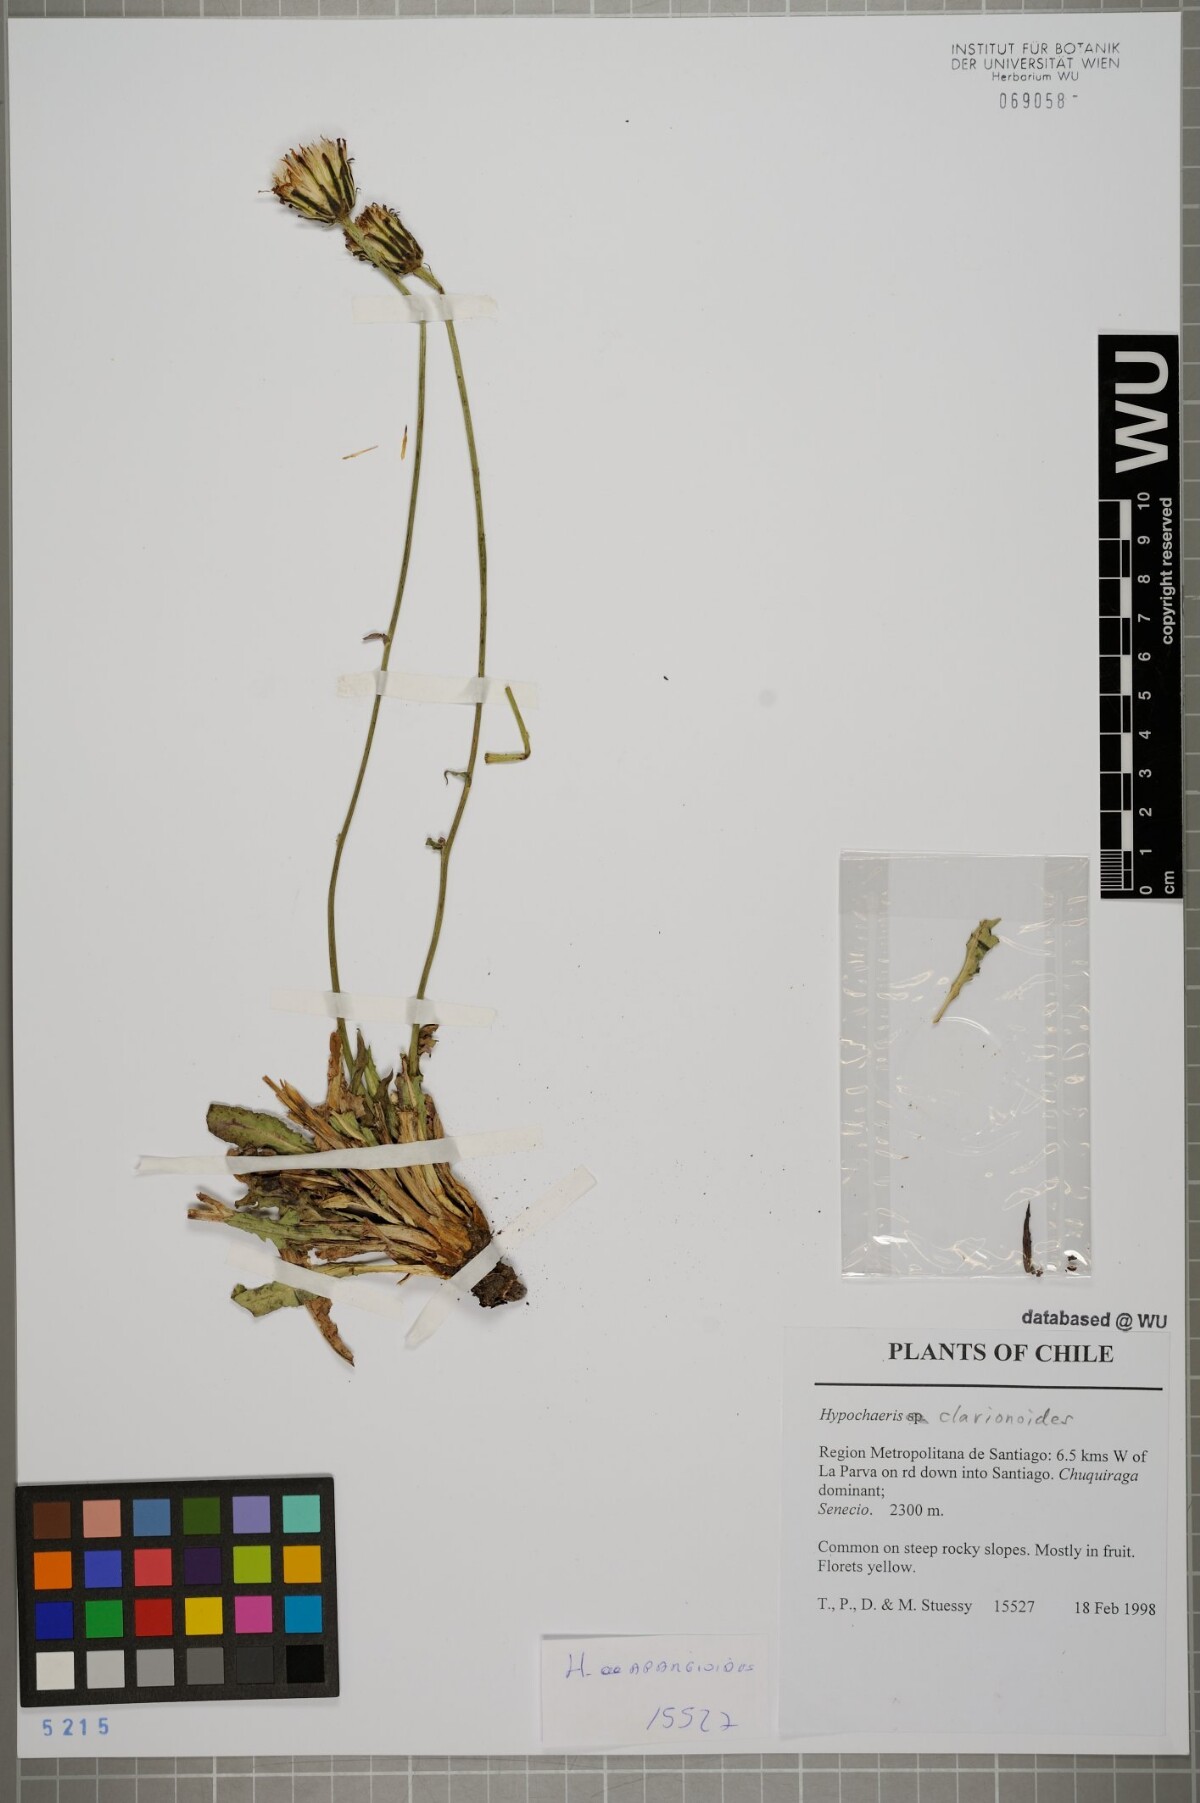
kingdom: Plantae
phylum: Tracheophyta
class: Magnoliopsida
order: Asterales
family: Asteraceae
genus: Hypochaeris
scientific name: Hypochaeris clarionoides
